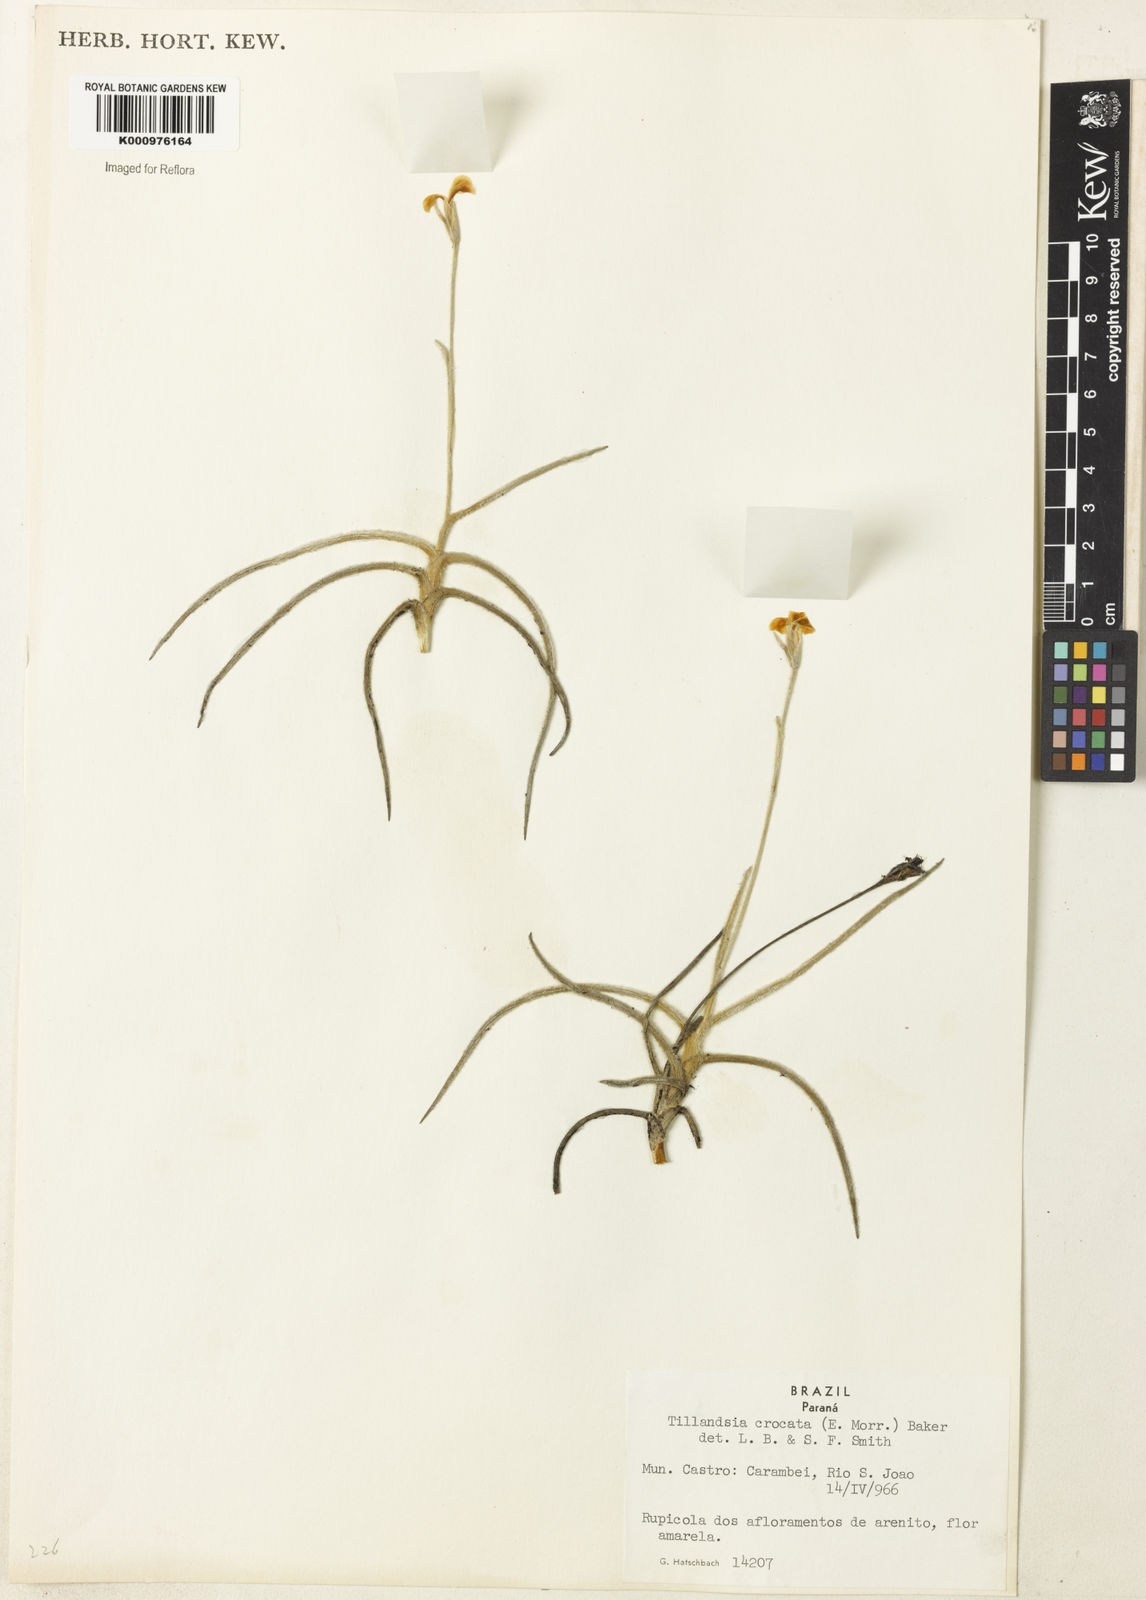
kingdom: Plantae
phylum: Tracheophyta
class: Liliopsida
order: Poales
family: Bromeliaceae
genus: Tillandsia
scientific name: Tillandsia
